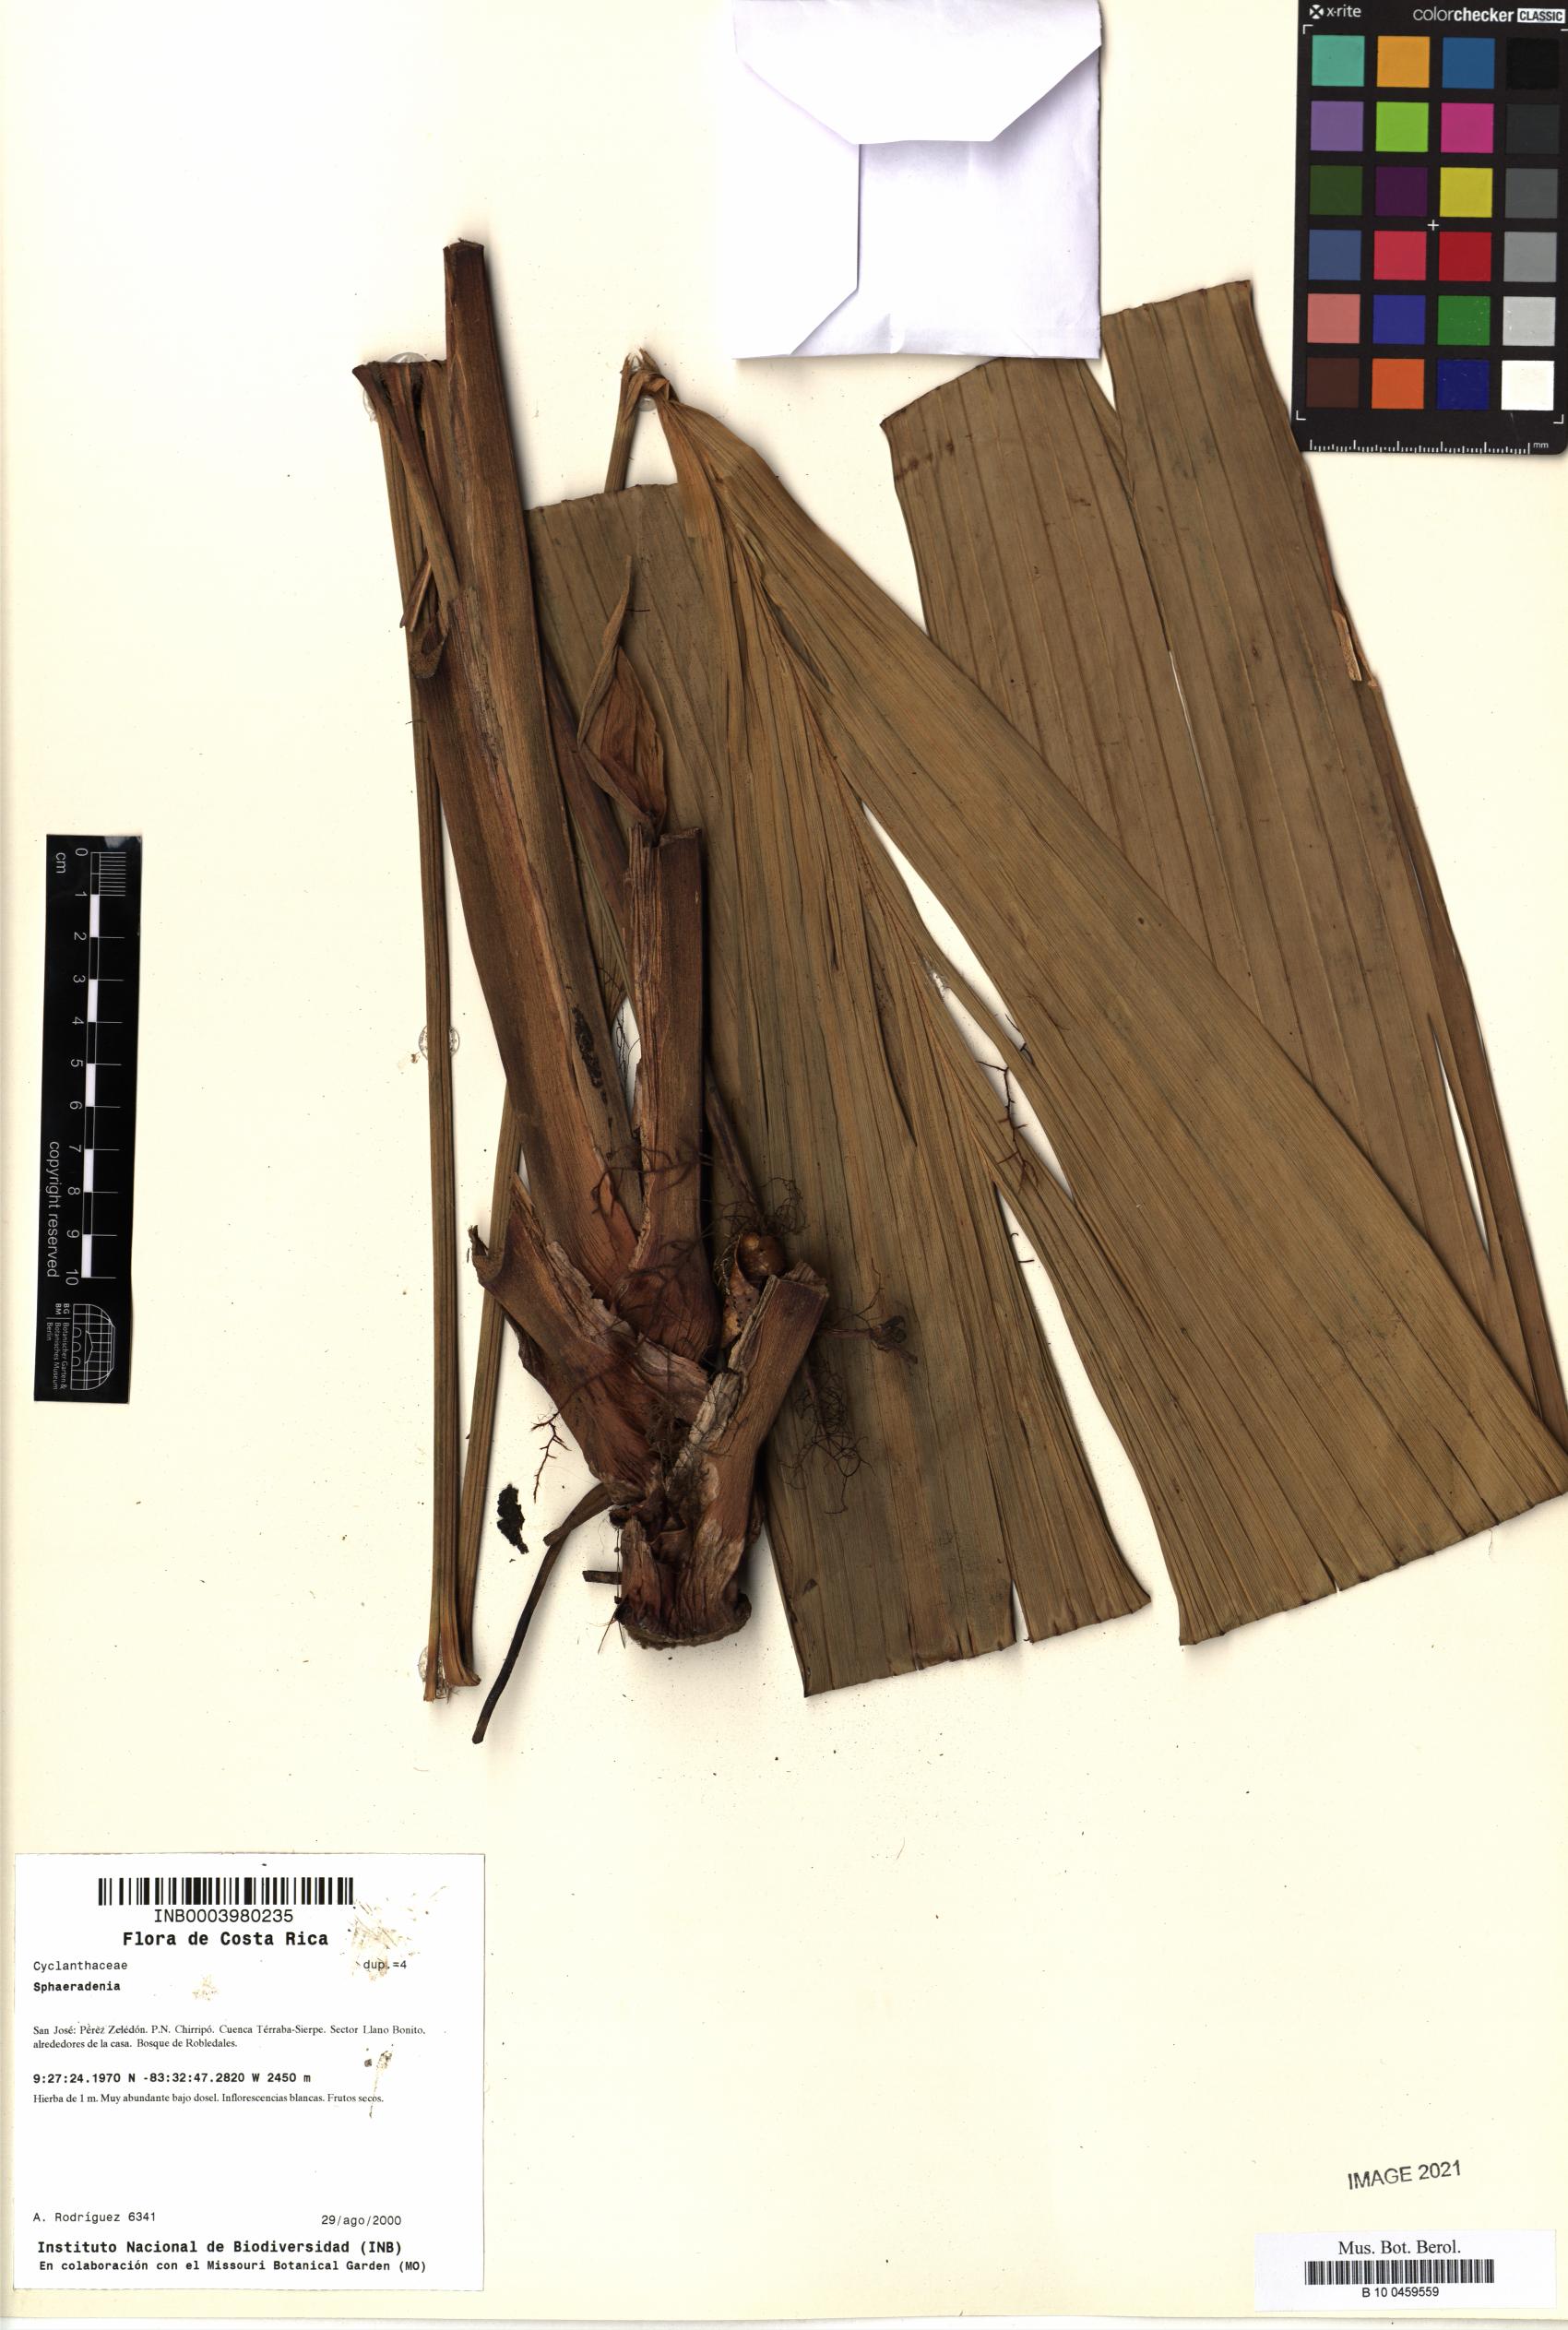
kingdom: Plantae
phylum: Tracheophyta
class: Liliopsida
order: Pandanales
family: Cyclanthaceae
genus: Sphaeradenia
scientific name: Sphaeradenia
